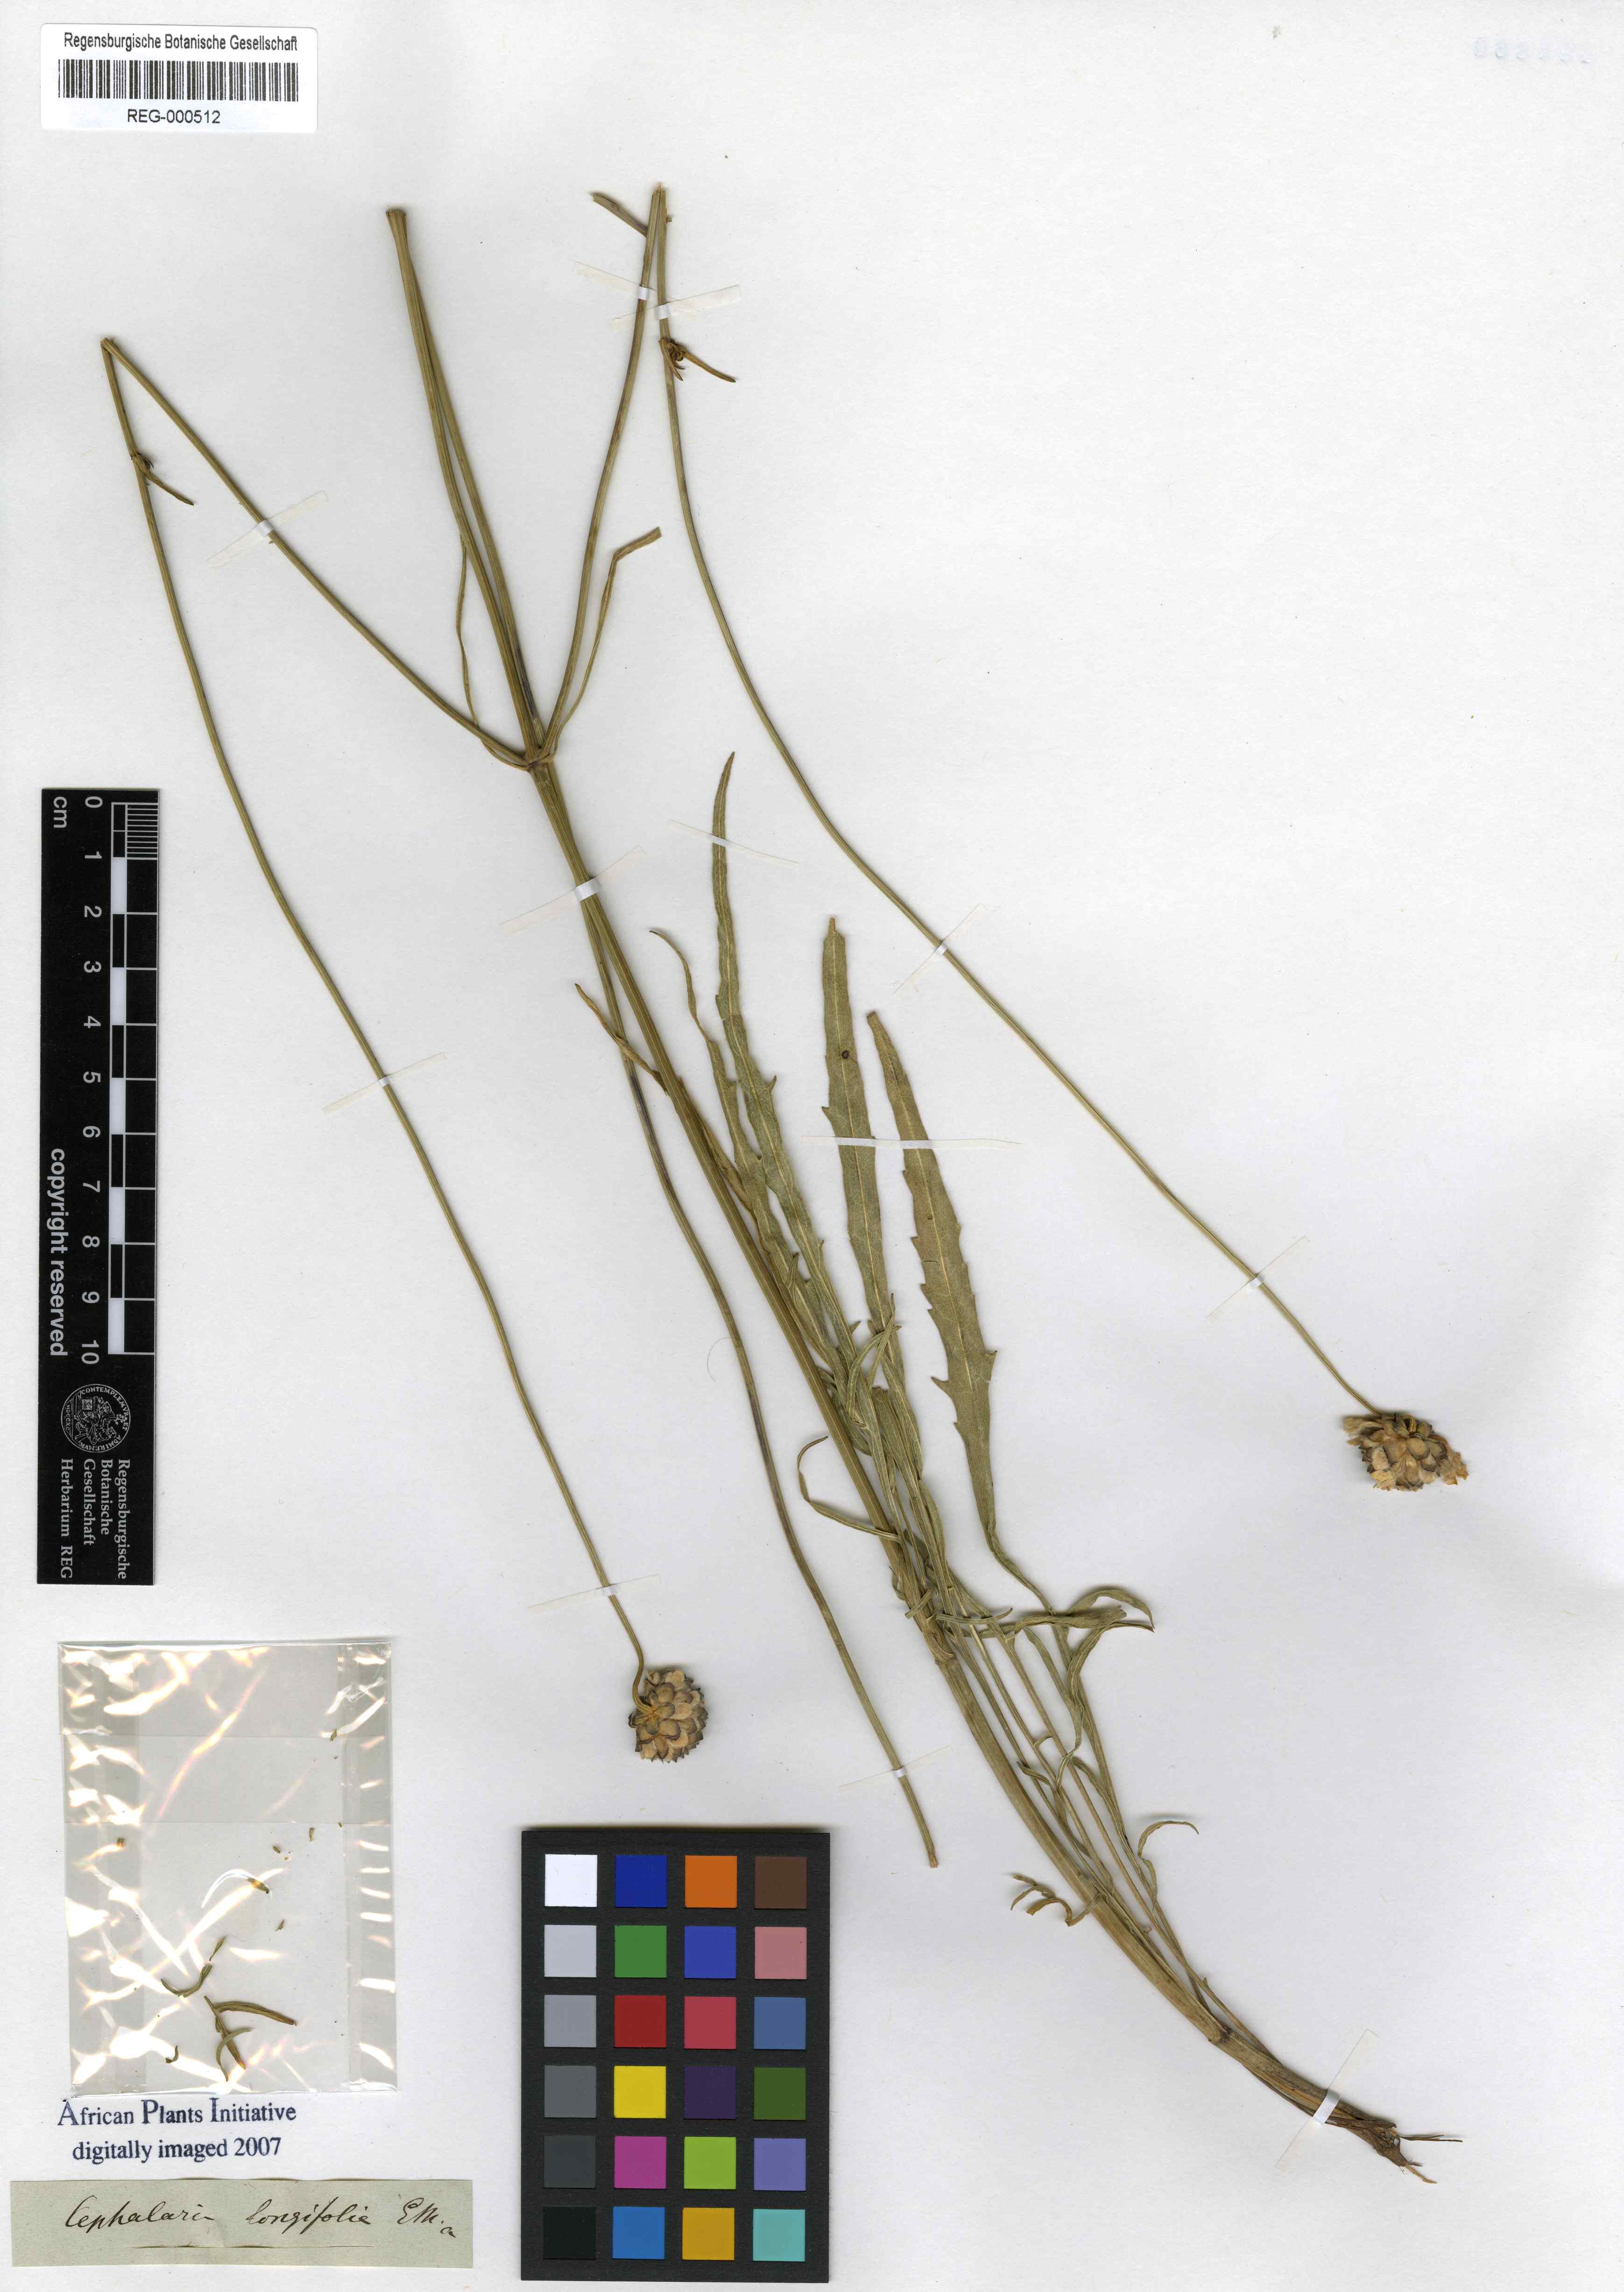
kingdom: Plantae
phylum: Tracheophyta
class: Magnoliopsida
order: Dipsacales
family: Caprifoliaceae
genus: Cephalaria
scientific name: Cephalaria attenuata
